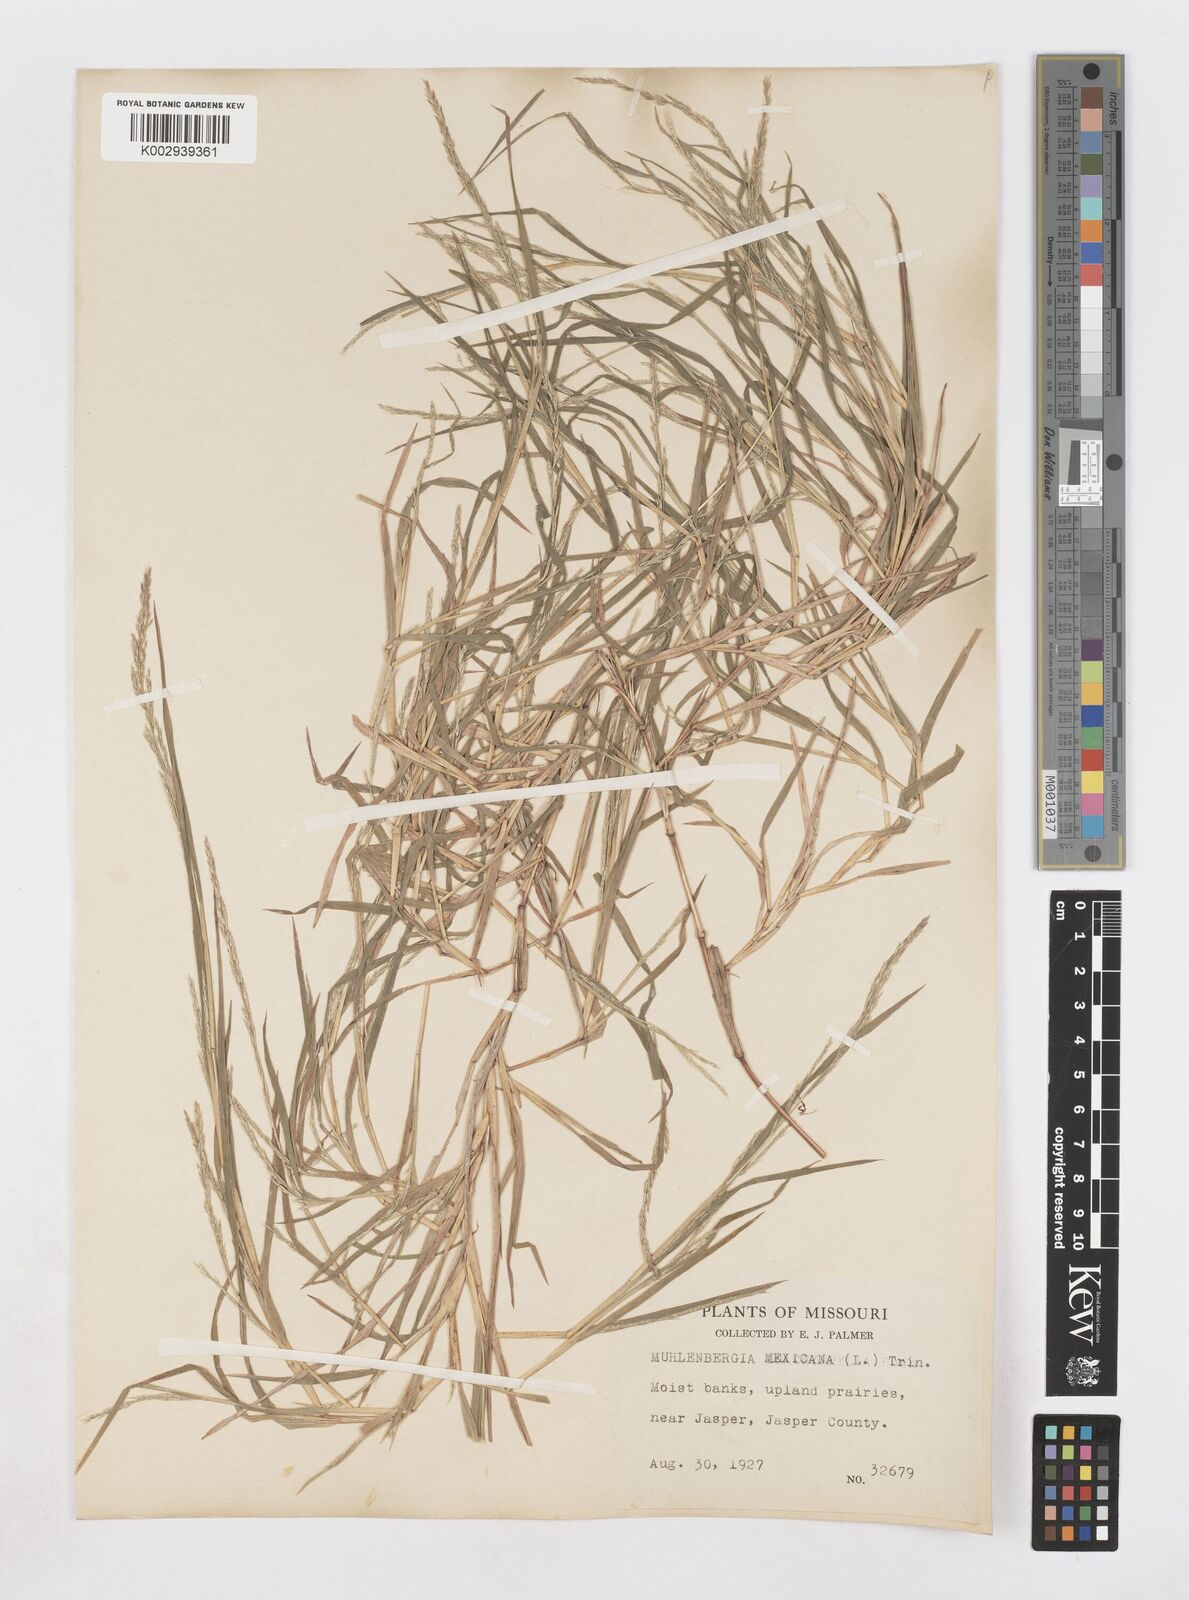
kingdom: Plantae
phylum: Tracheophyta
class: Liliopsida
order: Poales
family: Poaceae
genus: Muhlenbergia
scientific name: Muhlenbergia mexicana
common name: Mexican muhly
